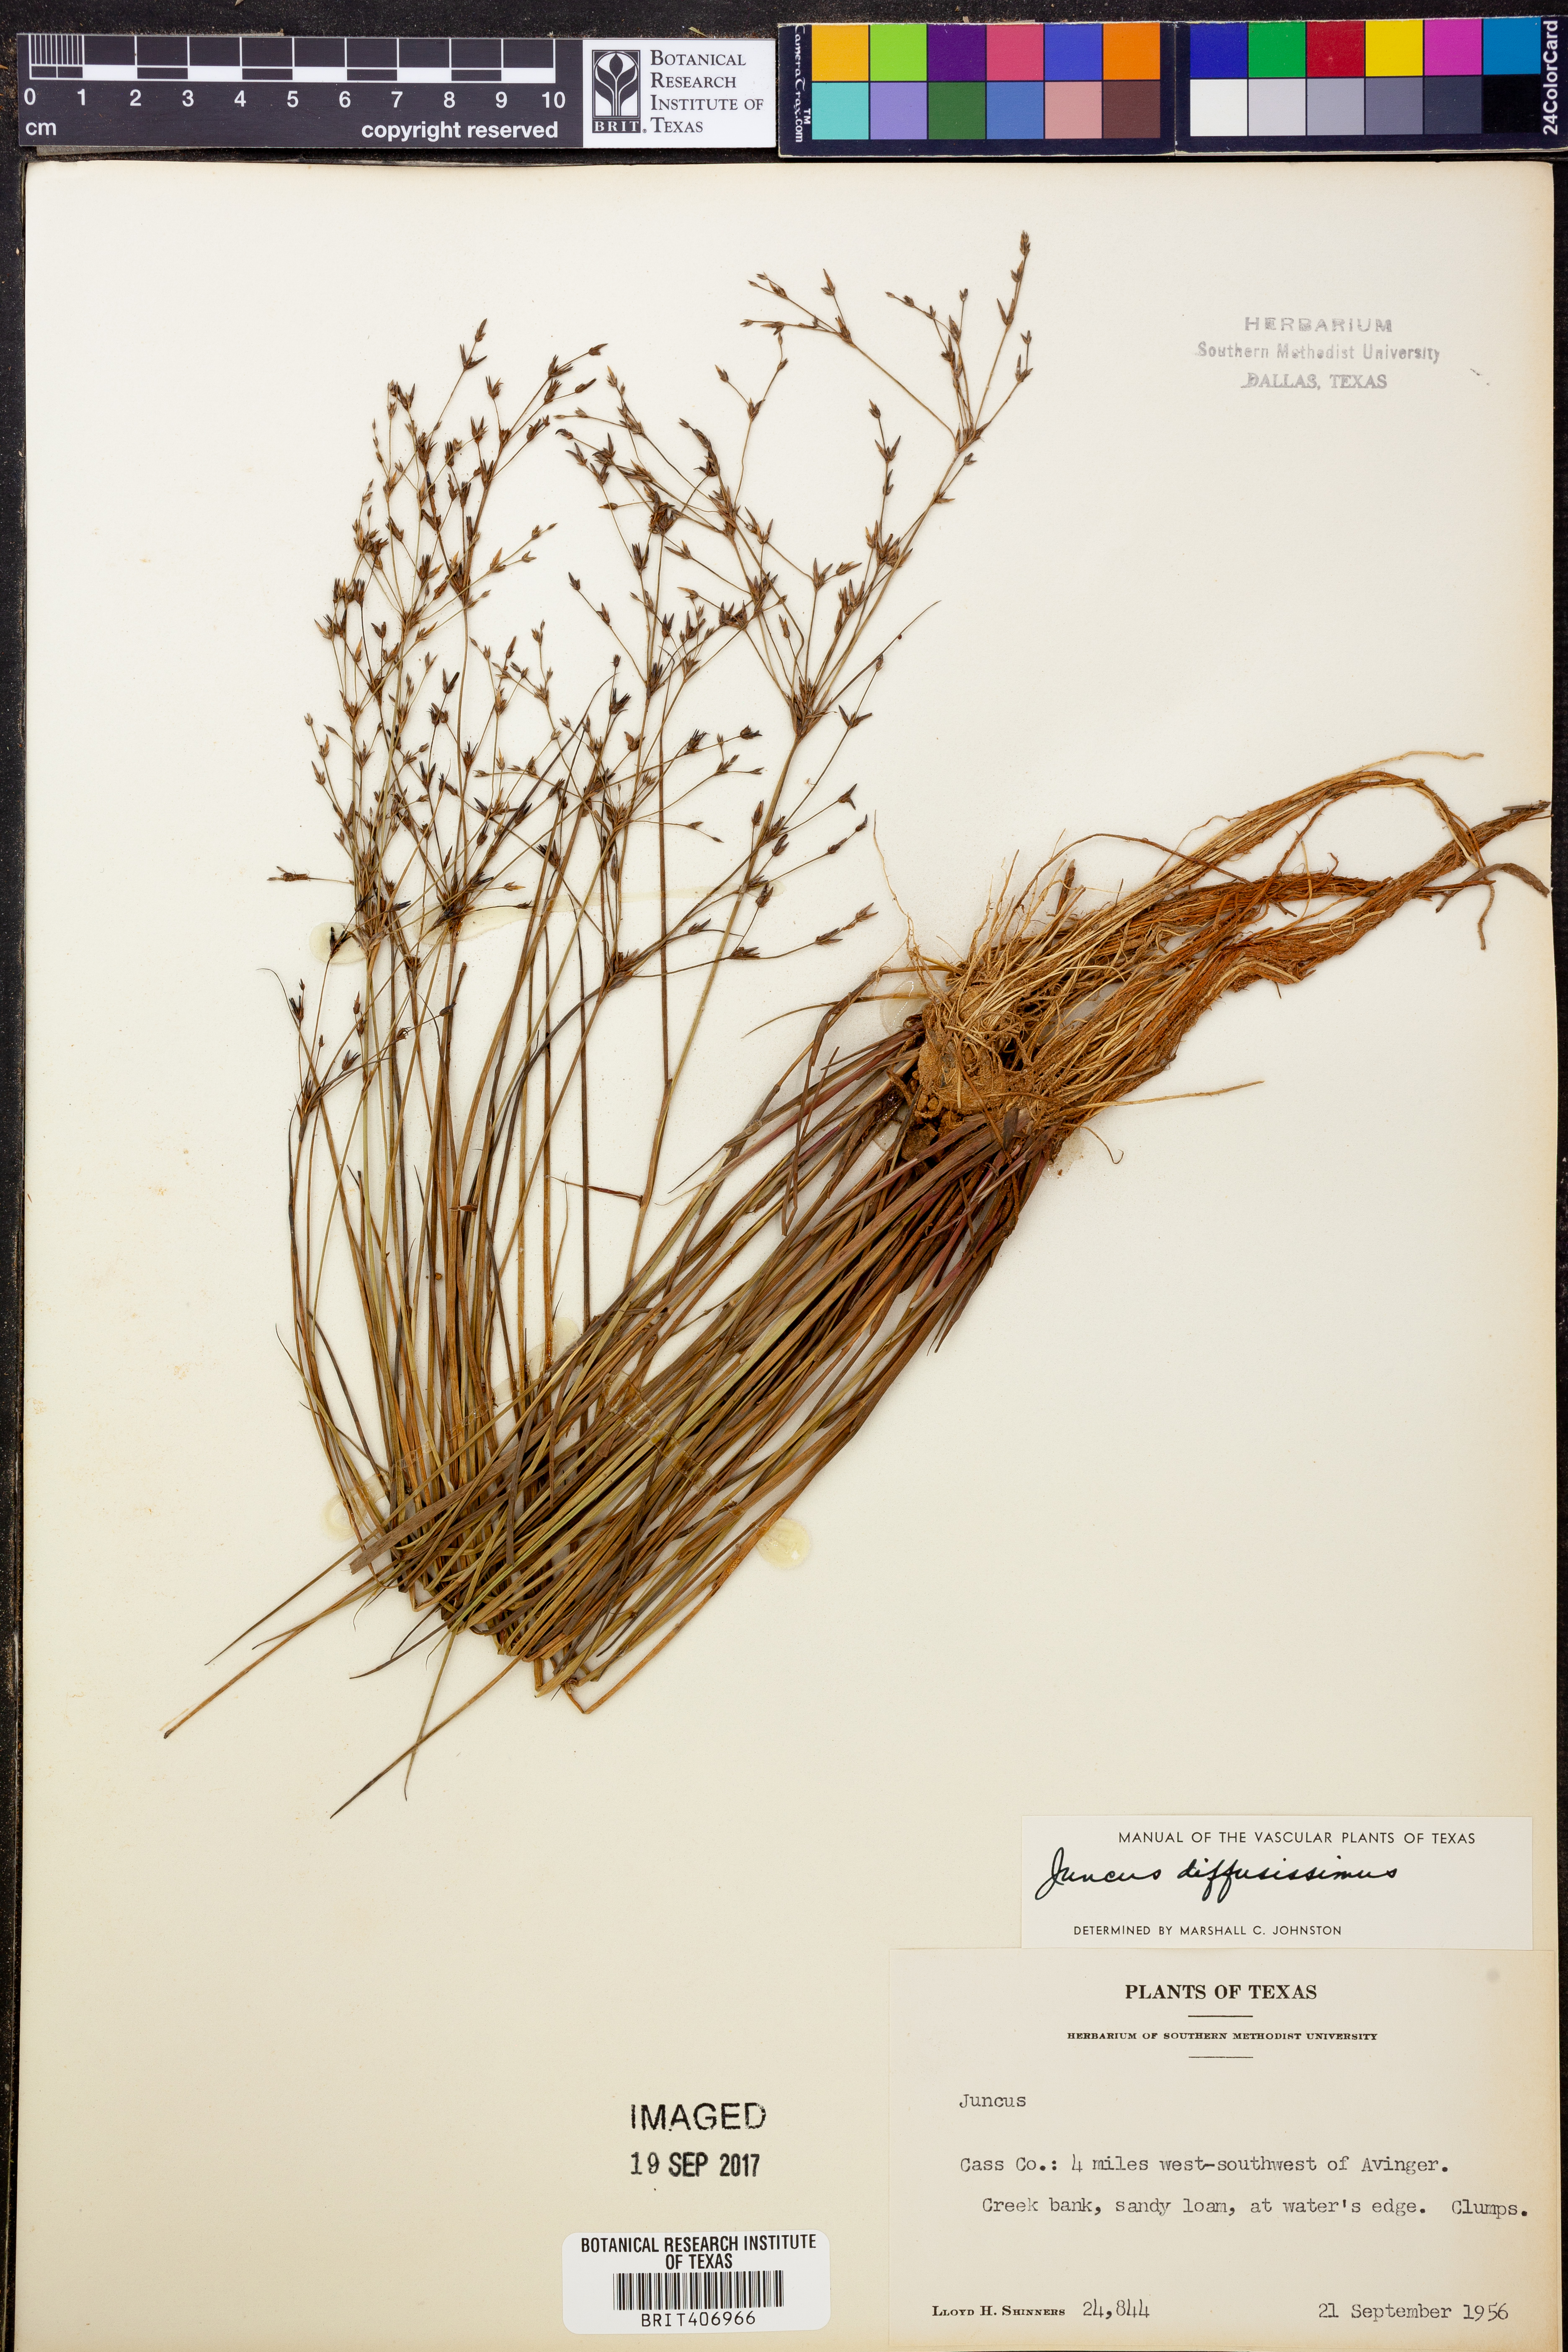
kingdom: Plantae
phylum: Tracheophyta
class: Liliopsida
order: Poales
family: Juncaceae
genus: Juncus
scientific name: Juncus diffusissimus
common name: Slimpod rush
